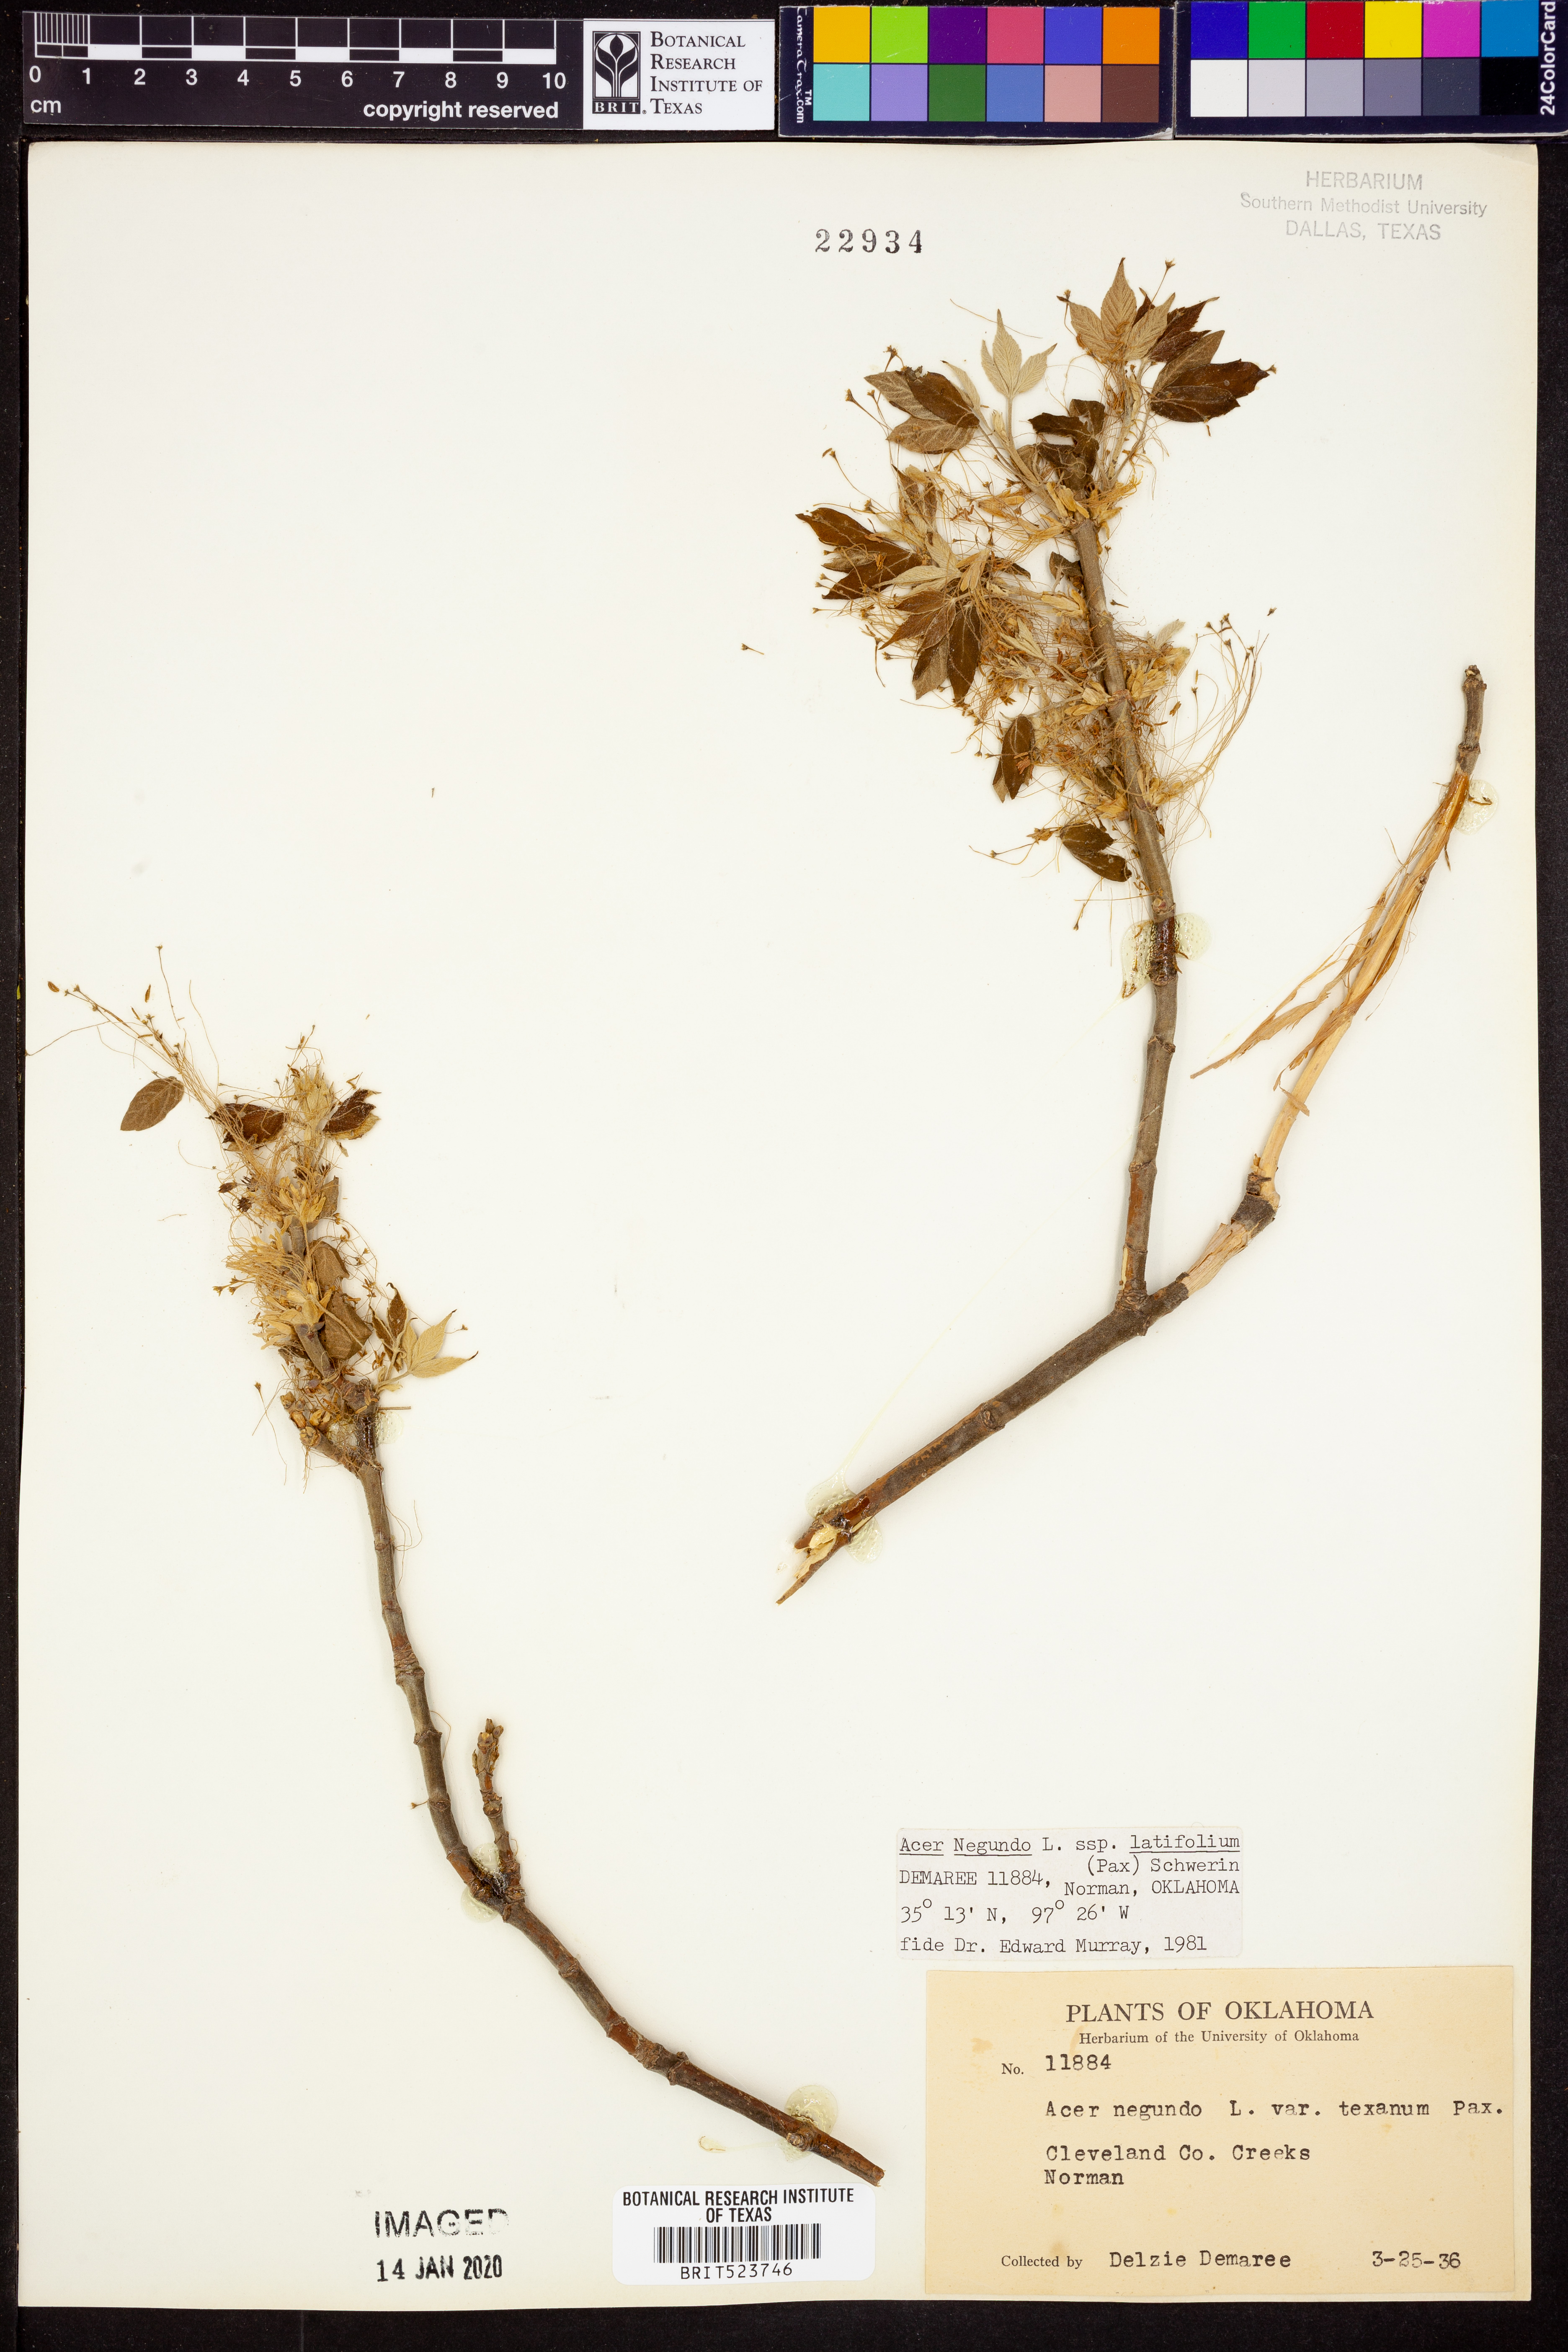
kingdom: Plantae
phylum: Tracheophyta
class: Magnoliopsida
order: Sapindales
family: Sapindaceae
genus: Acer
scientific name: Acer negundo
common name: Ashleaf maple
